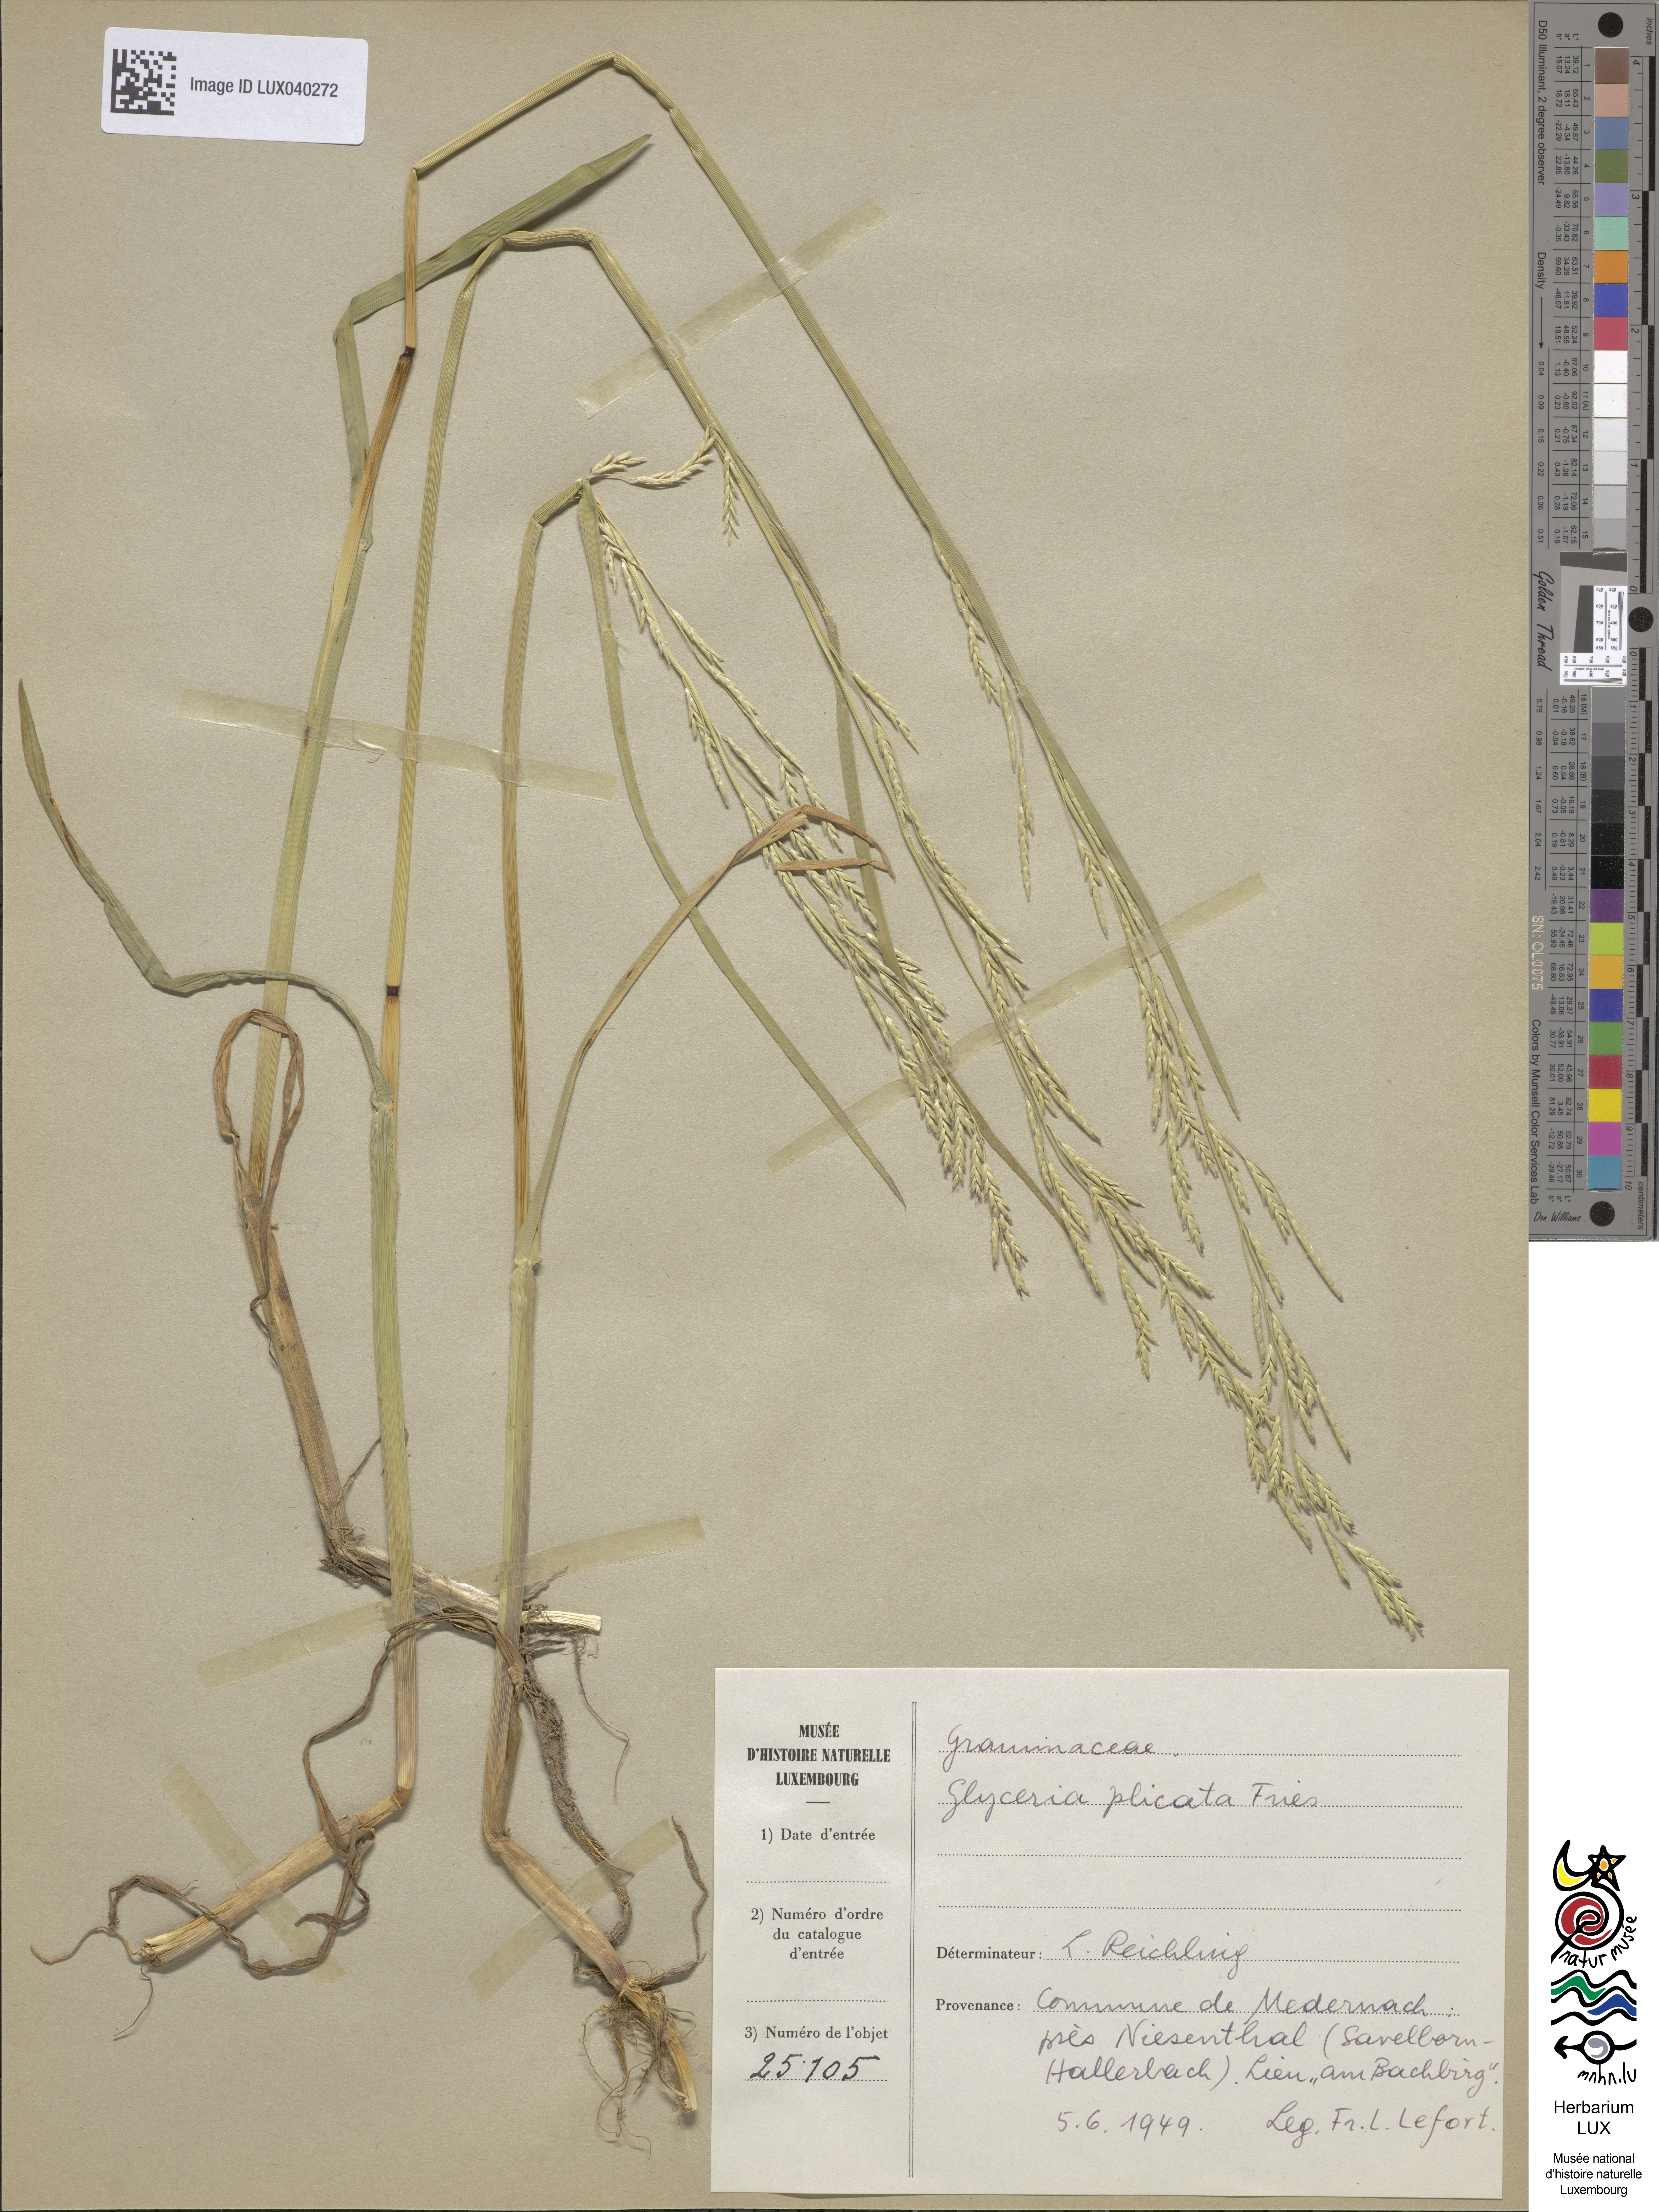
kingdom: Plantae
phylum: Tracheophyta
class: Liliopsida
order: Poales
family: Poaceae
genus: Glyceria
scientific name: Glyceria notata
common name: Plicate sweet-grass
